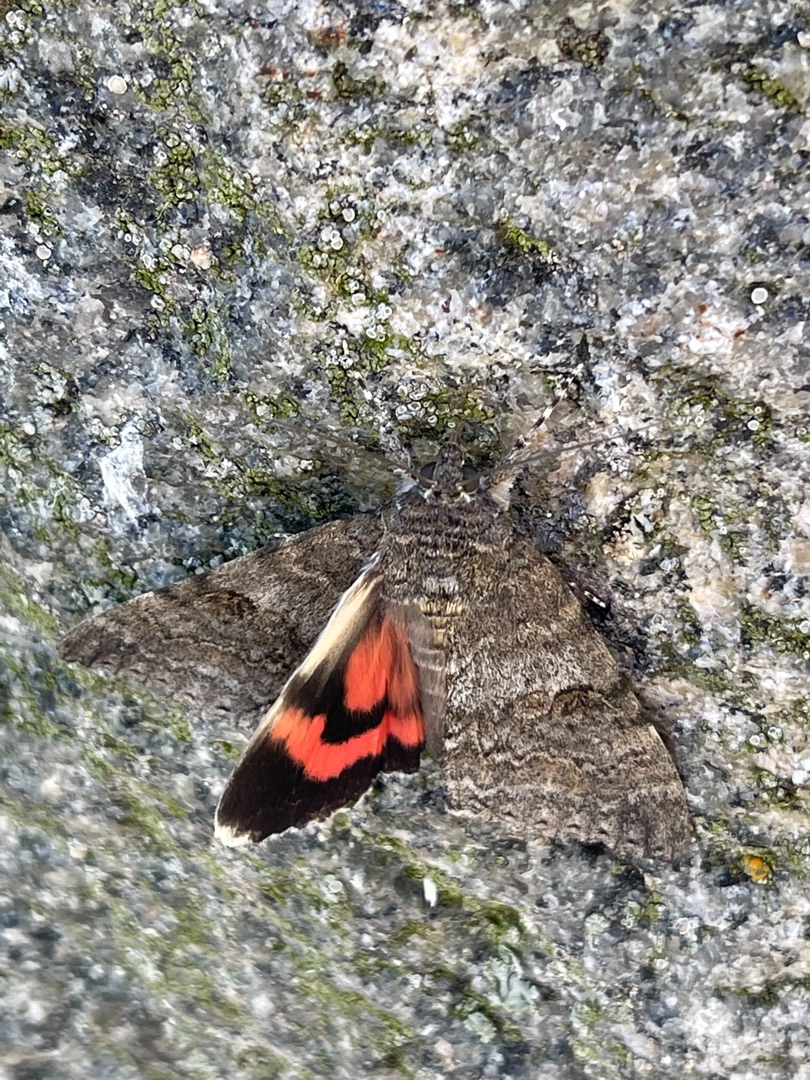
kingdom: Animalia
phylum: Arthropoda
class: Insecta
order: Lepidoptera
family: Erebidae
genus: Catocala
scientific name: Catocala nupta
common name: Rødt ordensbånd
